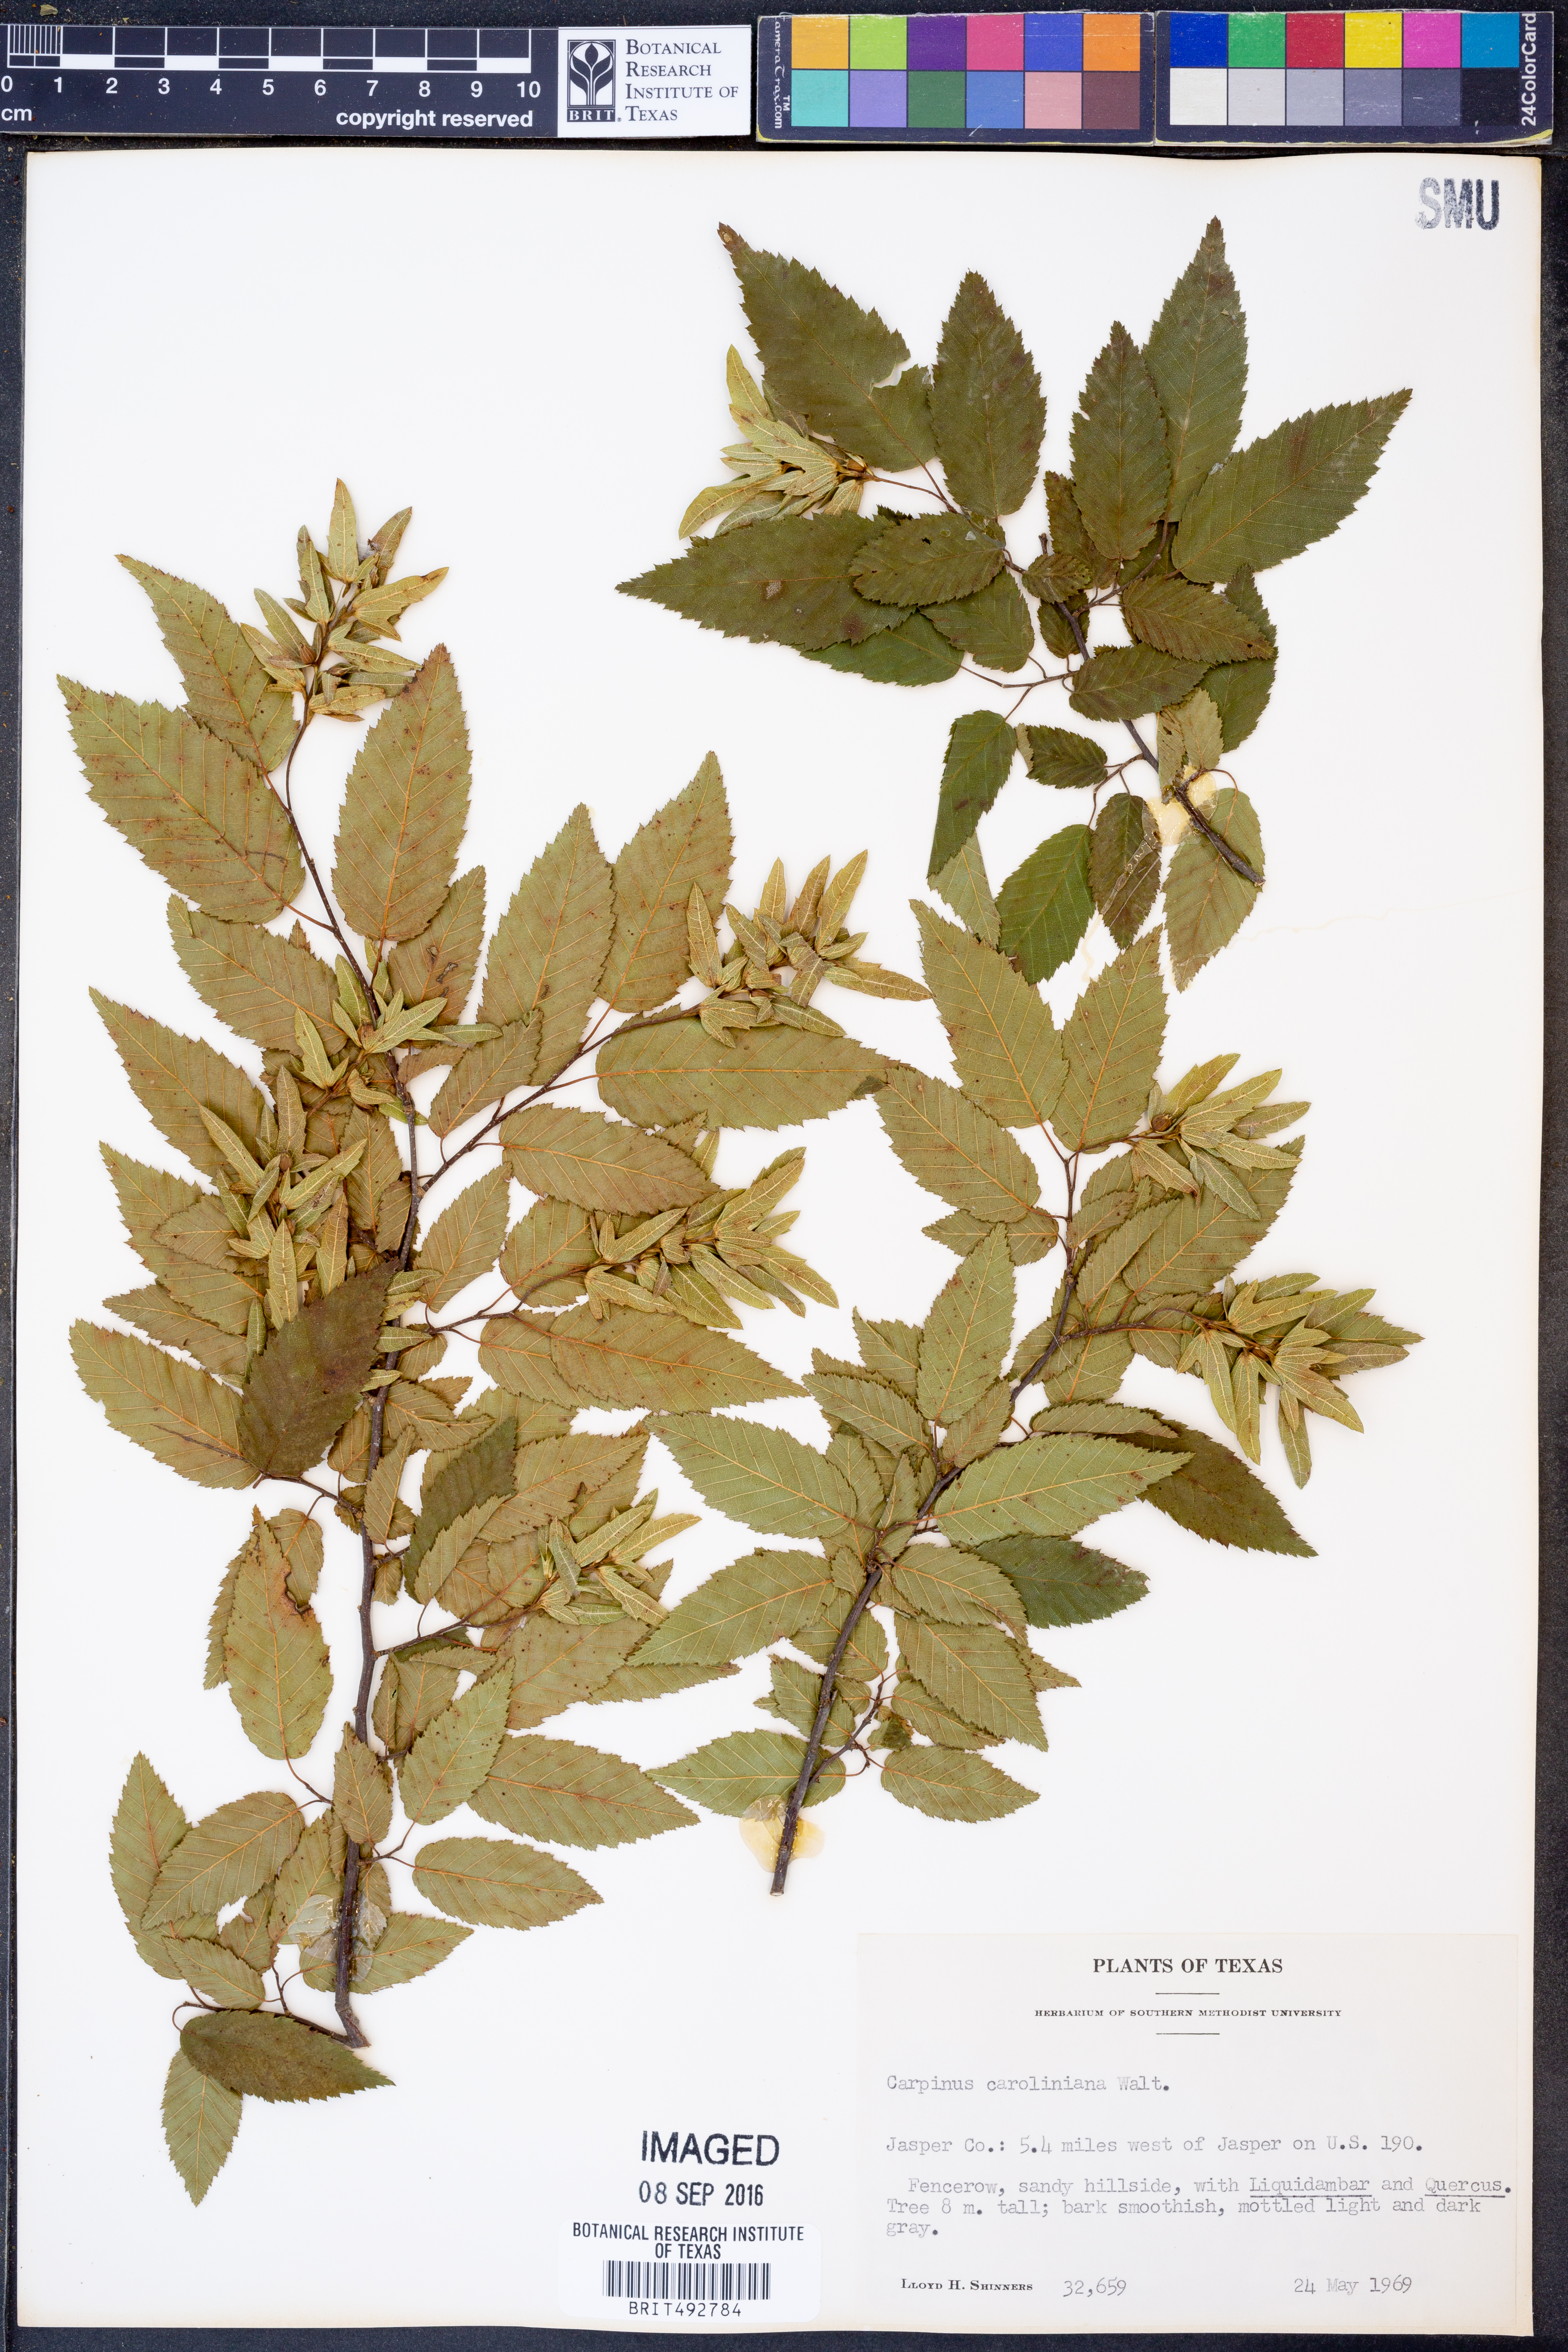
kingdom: Plantae
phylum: Tracheophyta
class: Magnoliopsida
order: Fagales
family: Betulaceae
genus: Carpinus
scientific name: Carpinus caroliniana
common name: American hornbeam
